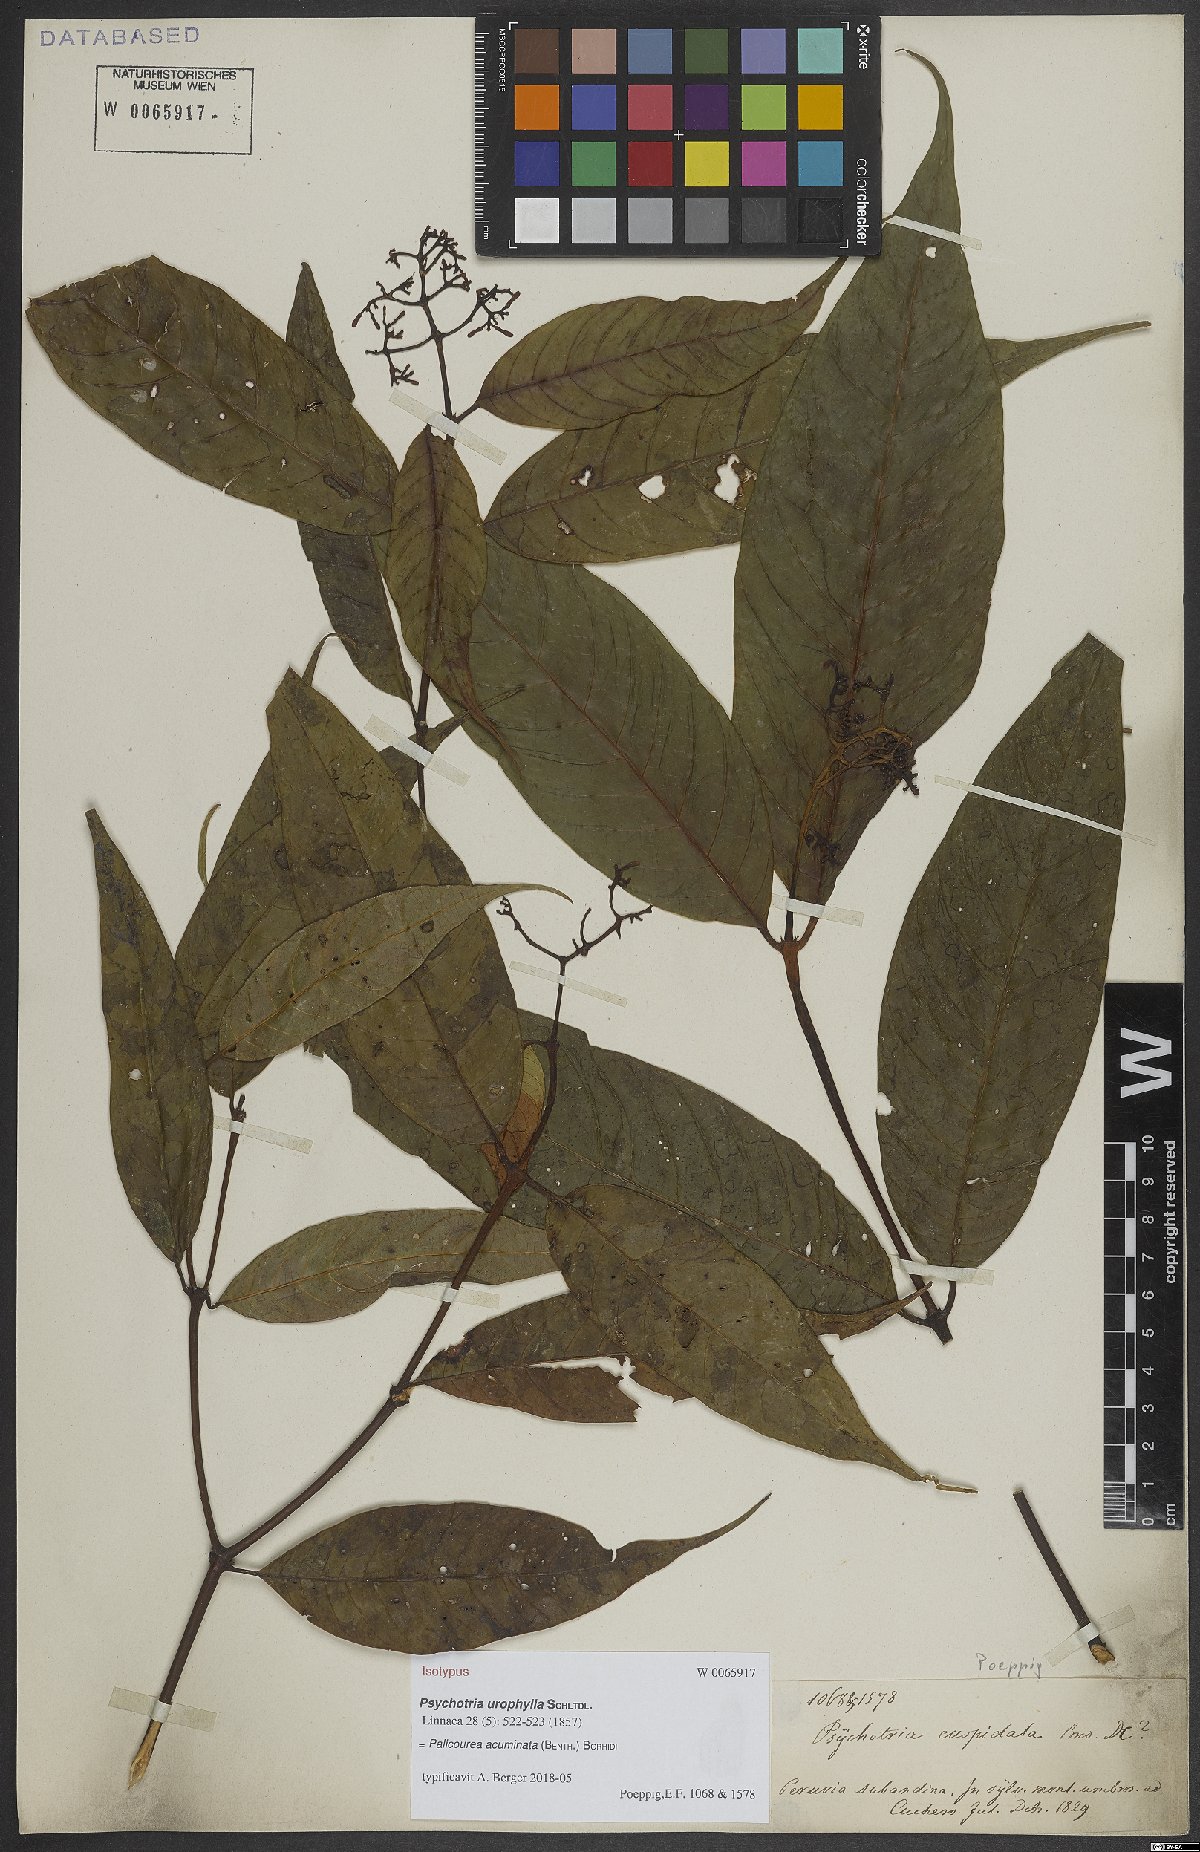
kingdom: Plantae
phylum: Tracheophyta
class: Magnoliopsida
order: Gentianales
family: Rubiaceae
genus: Palicourea
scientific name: Palicourea acuminata
